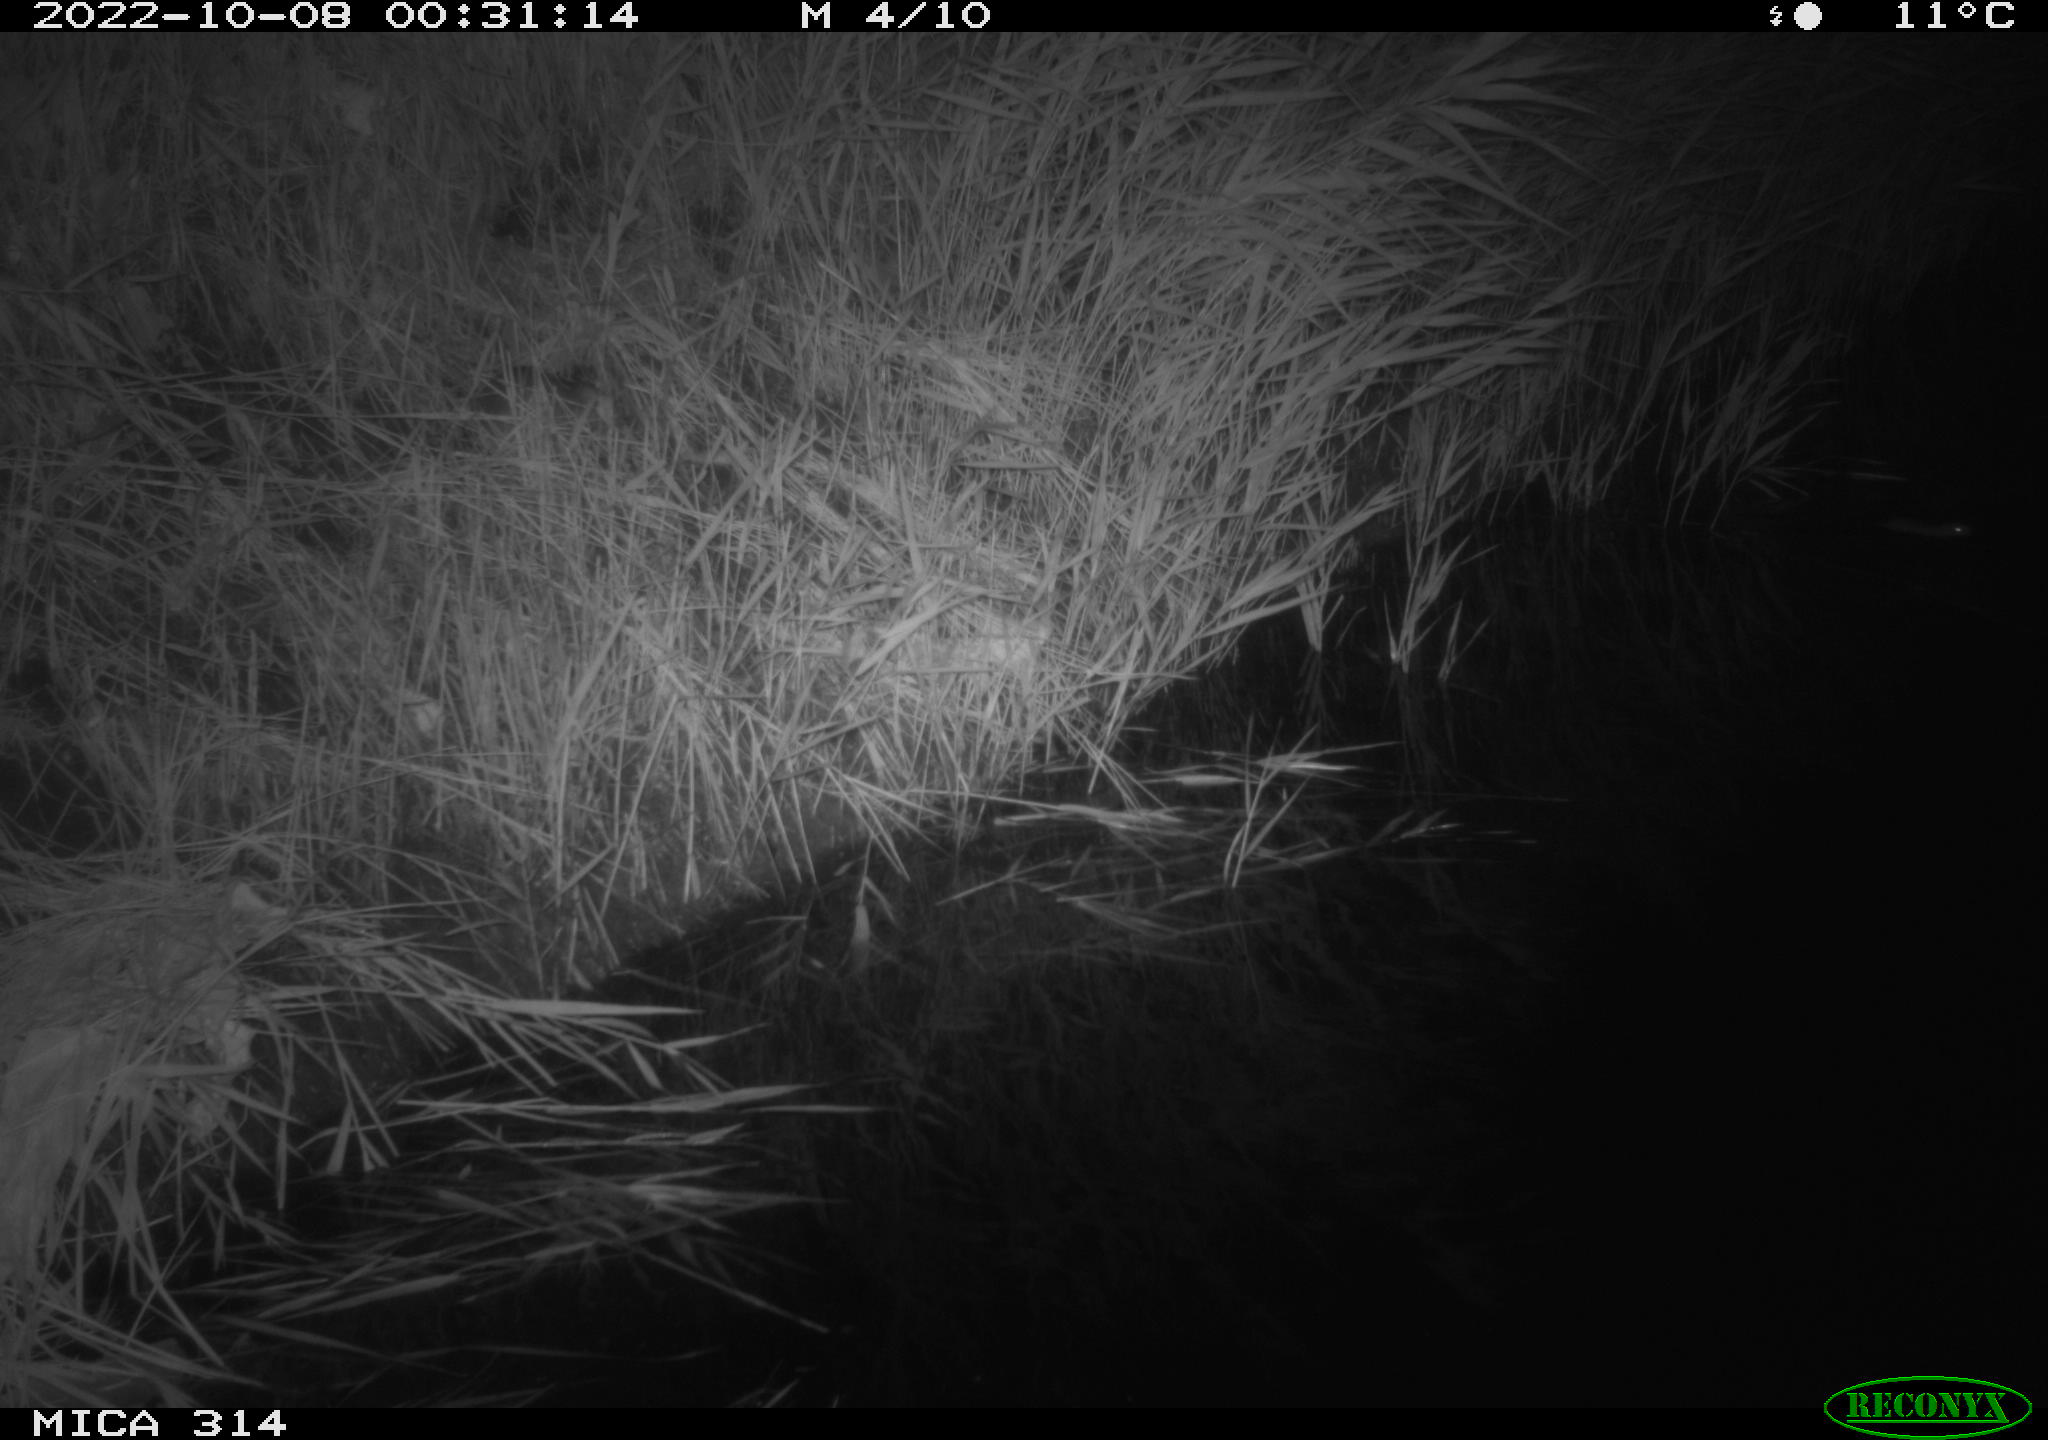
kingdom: Animalia
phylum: Chordata
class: Mammalia
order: Rodentia
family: Muridae
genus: Rattus
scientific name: Rattus norvegicus
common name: Brown rat
